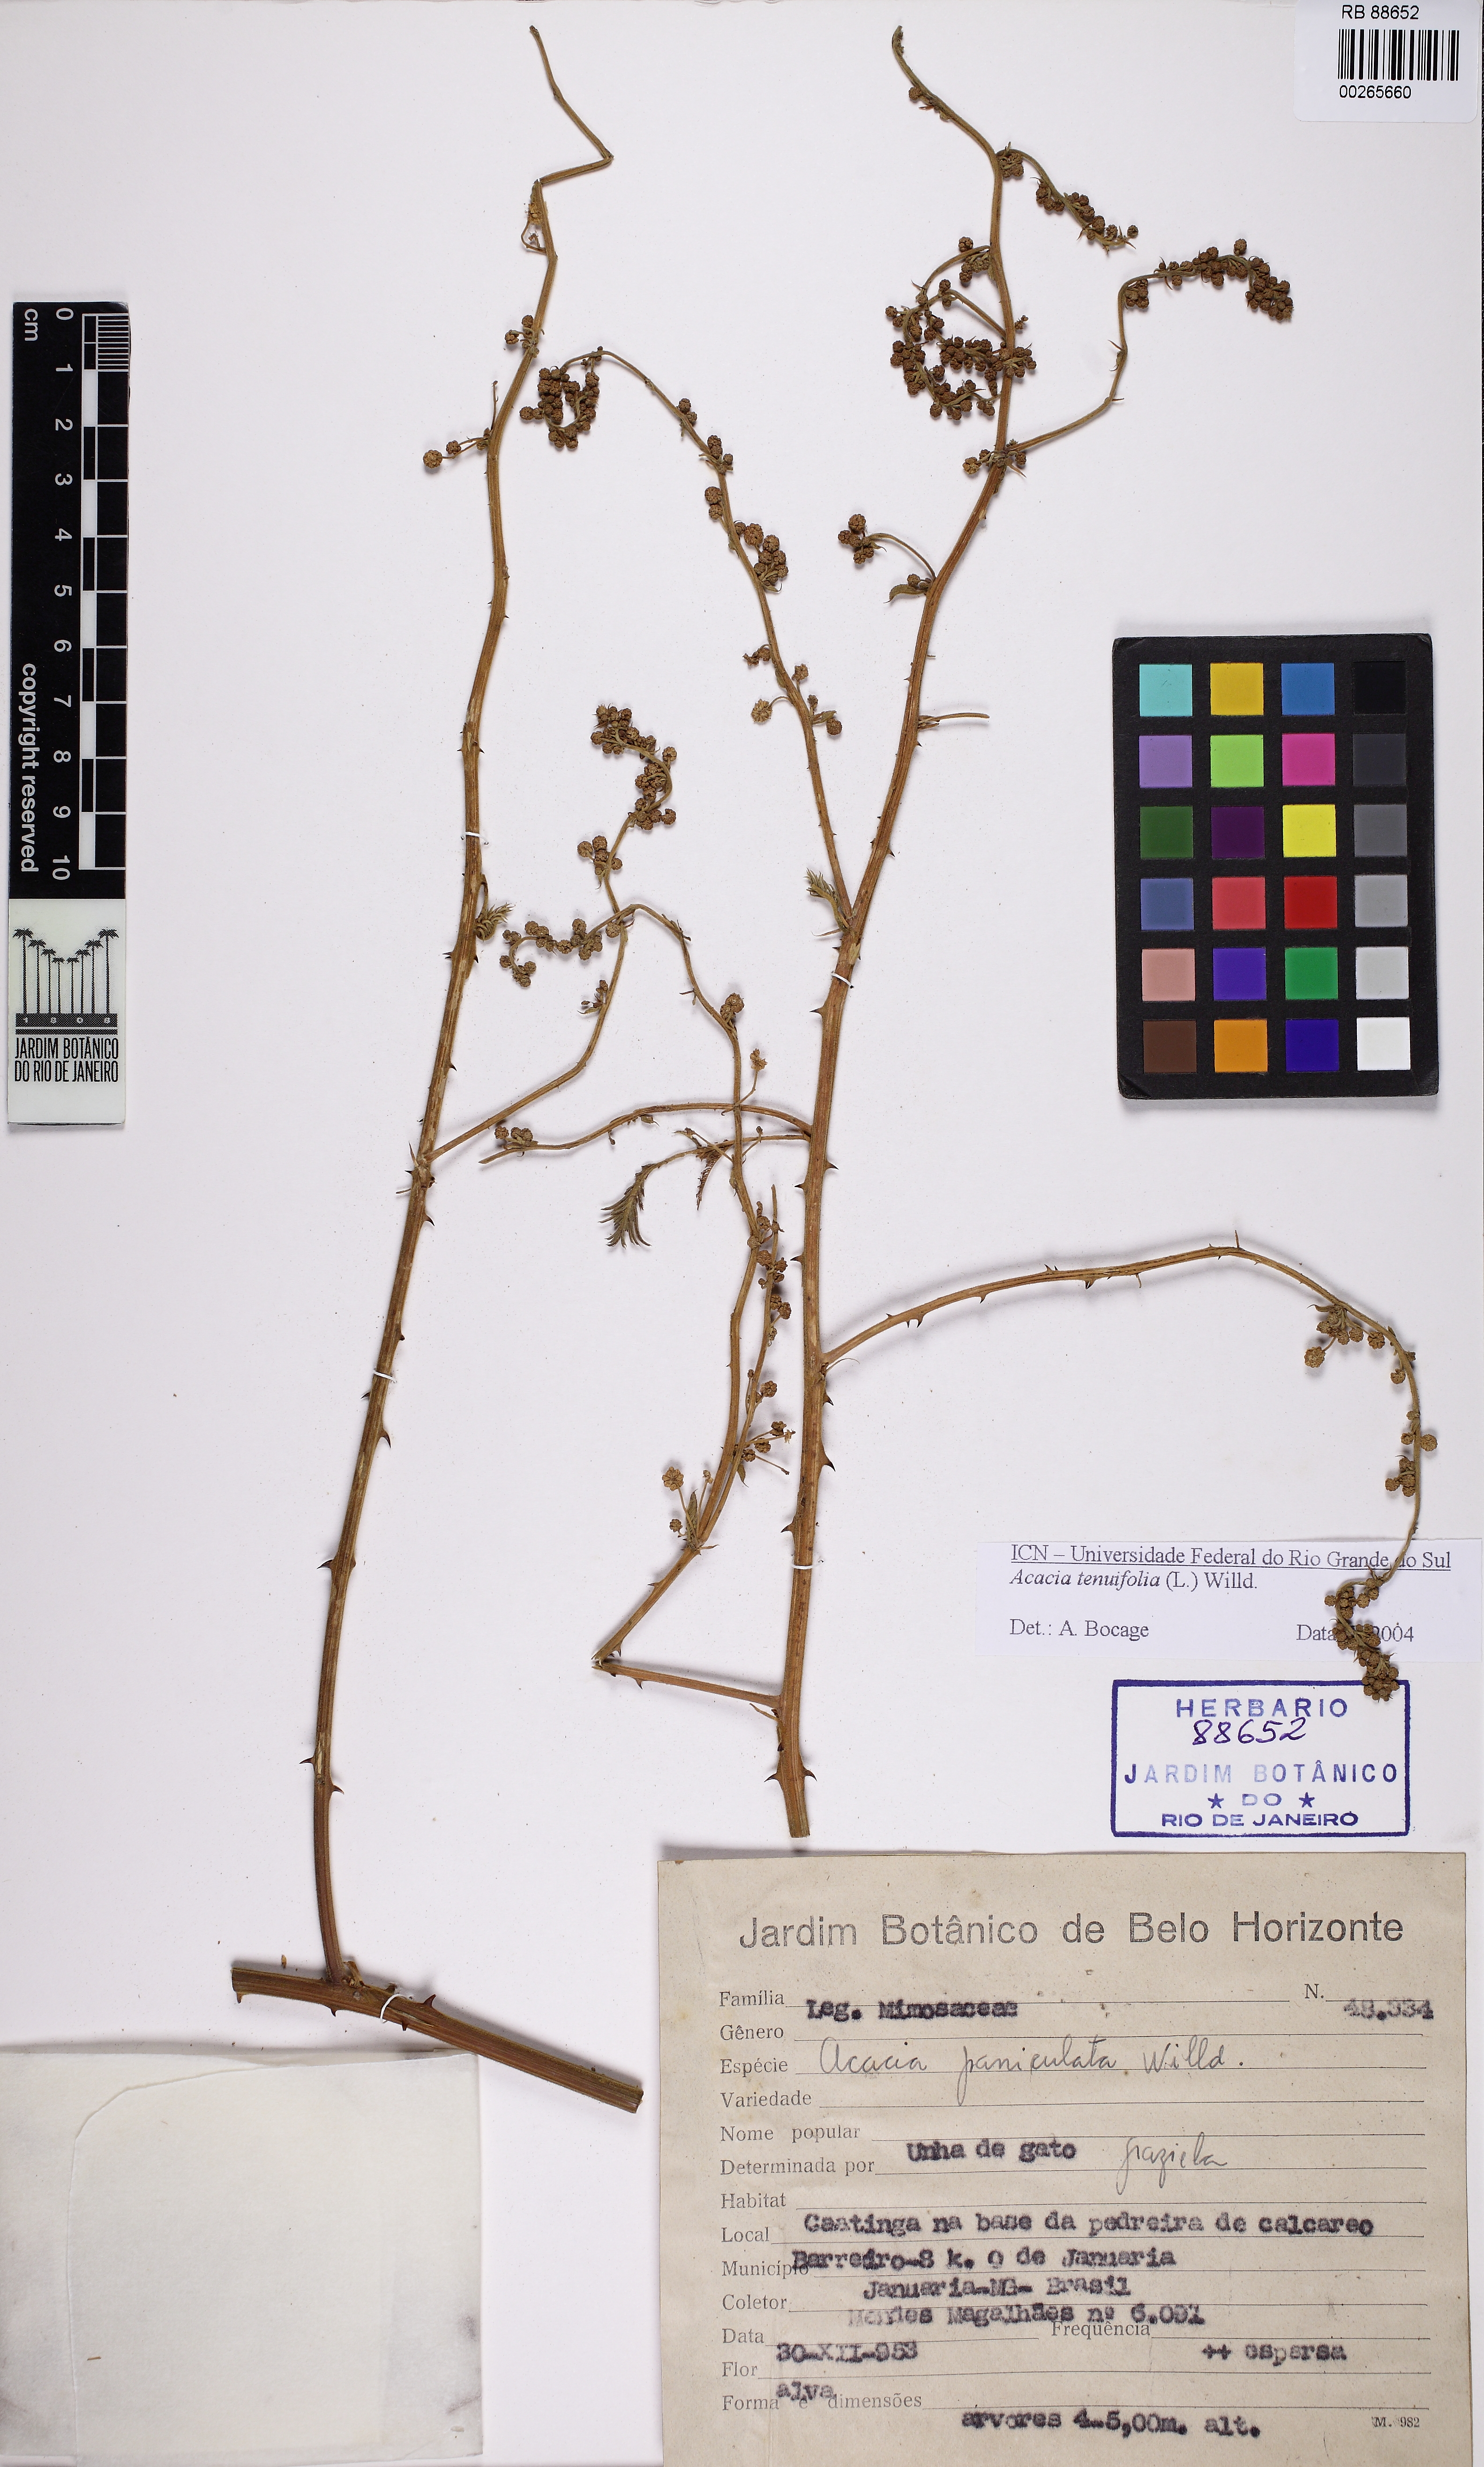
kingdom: Plantae
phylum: Tracheophyta
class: Magnoliopsida
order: Fabales
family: Fabaceae
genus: Senegalia
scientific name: Senegalia tenuifolia
